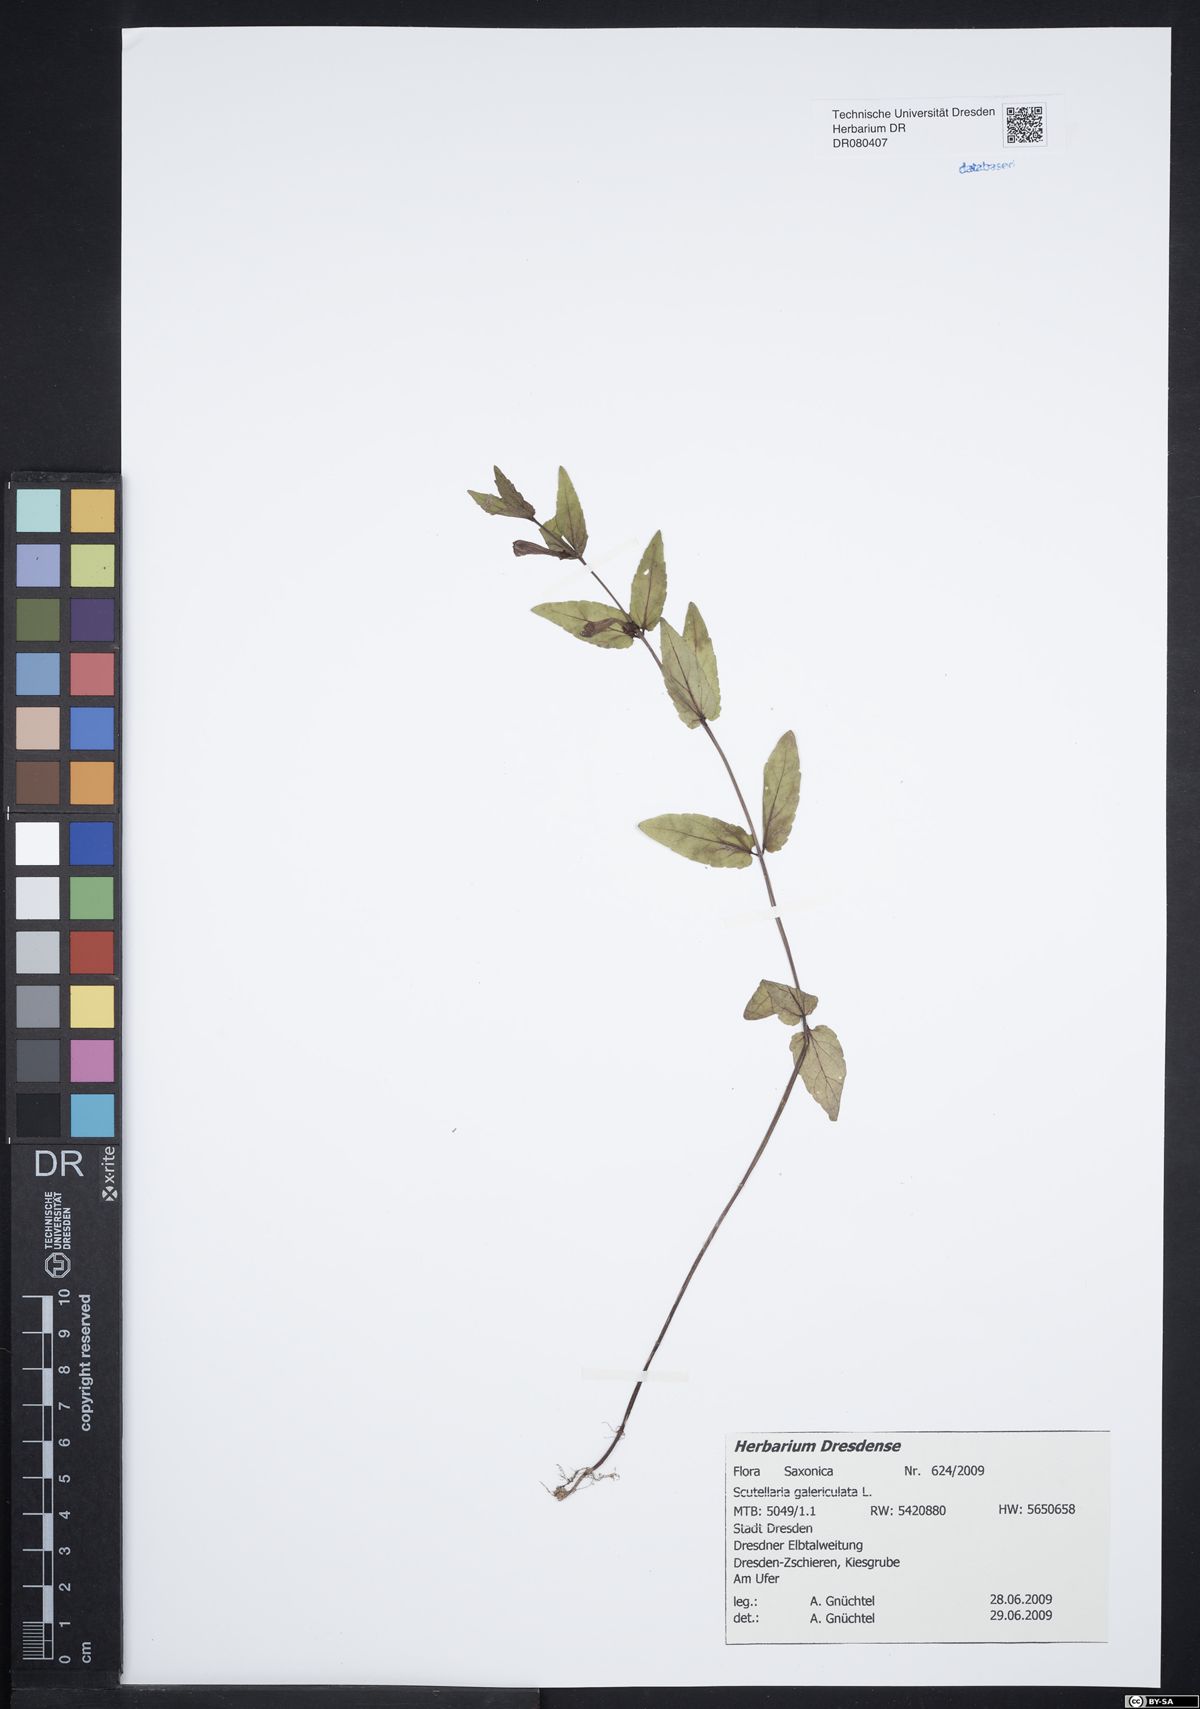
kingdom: Plantae
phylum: Tracheophyta
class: Magnoliopsida
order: Lamiales
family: Lamiaceae
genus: Scutellaria
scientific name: Scutellaria galericulata
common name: Skullcap
